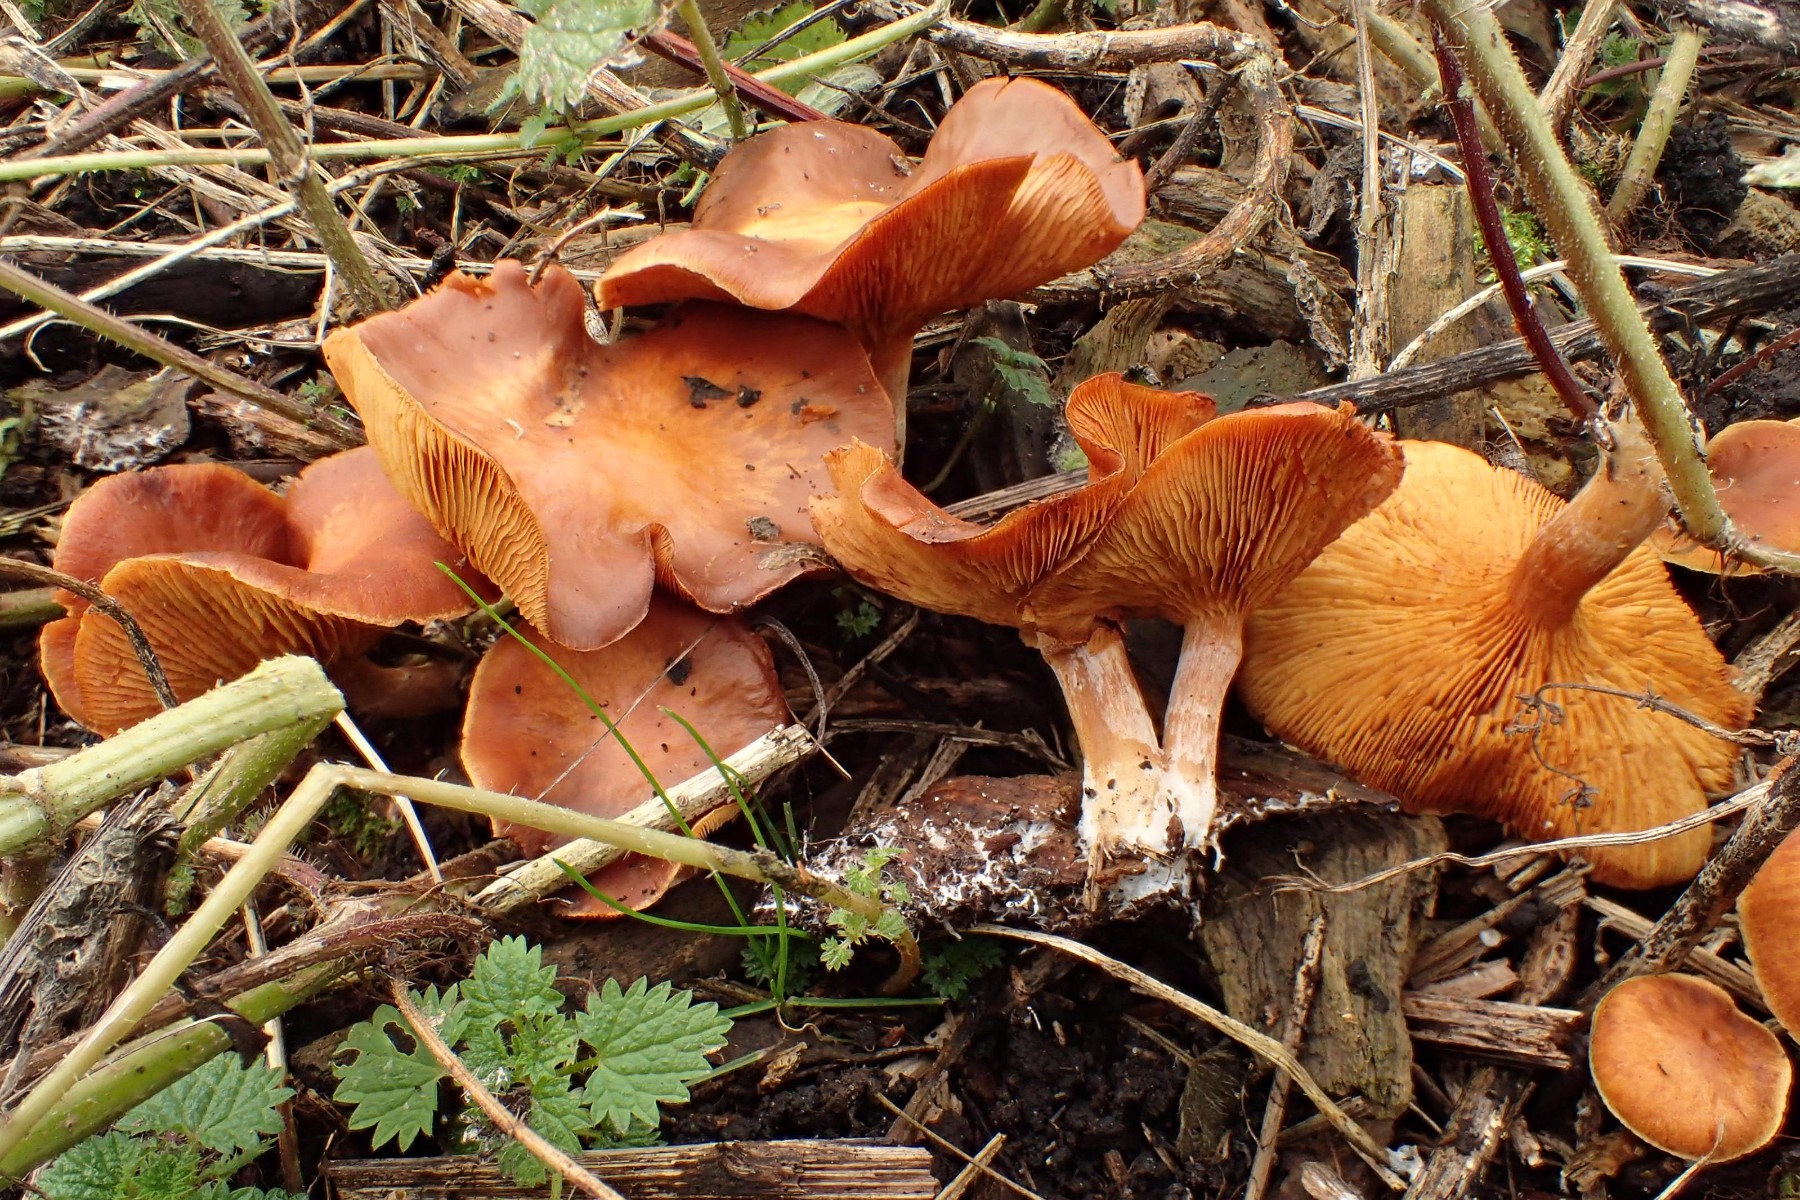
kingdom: Fungi
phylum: Basidiomycota
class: Agaricomycetes
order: Agaricales
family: Hymenogastraceae
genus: Gymnopilus
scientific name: Gymnopilus penetrans
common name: plettet flammehat
